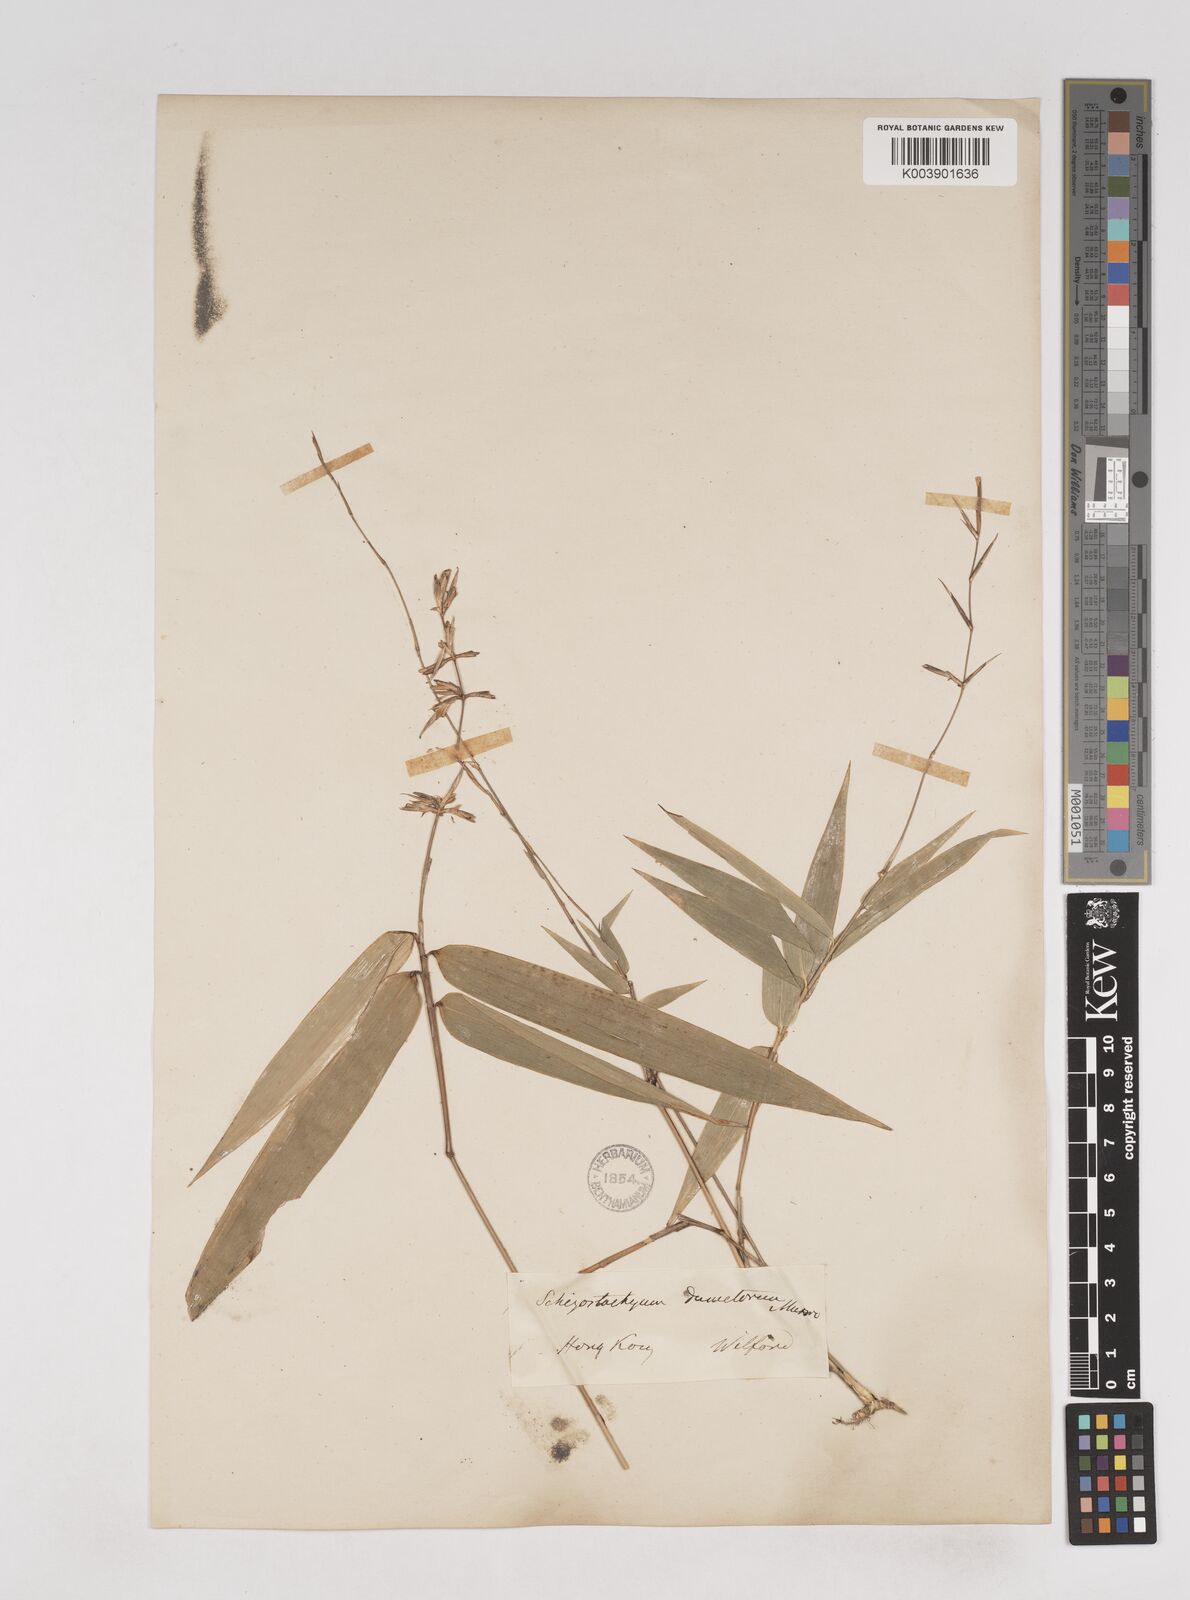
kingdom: Plantae
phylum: Tracheophyta
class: Liliopsida
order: Poales
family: Poaceae
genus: Schizostachyum
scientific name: Schizostachyum dumetorum
